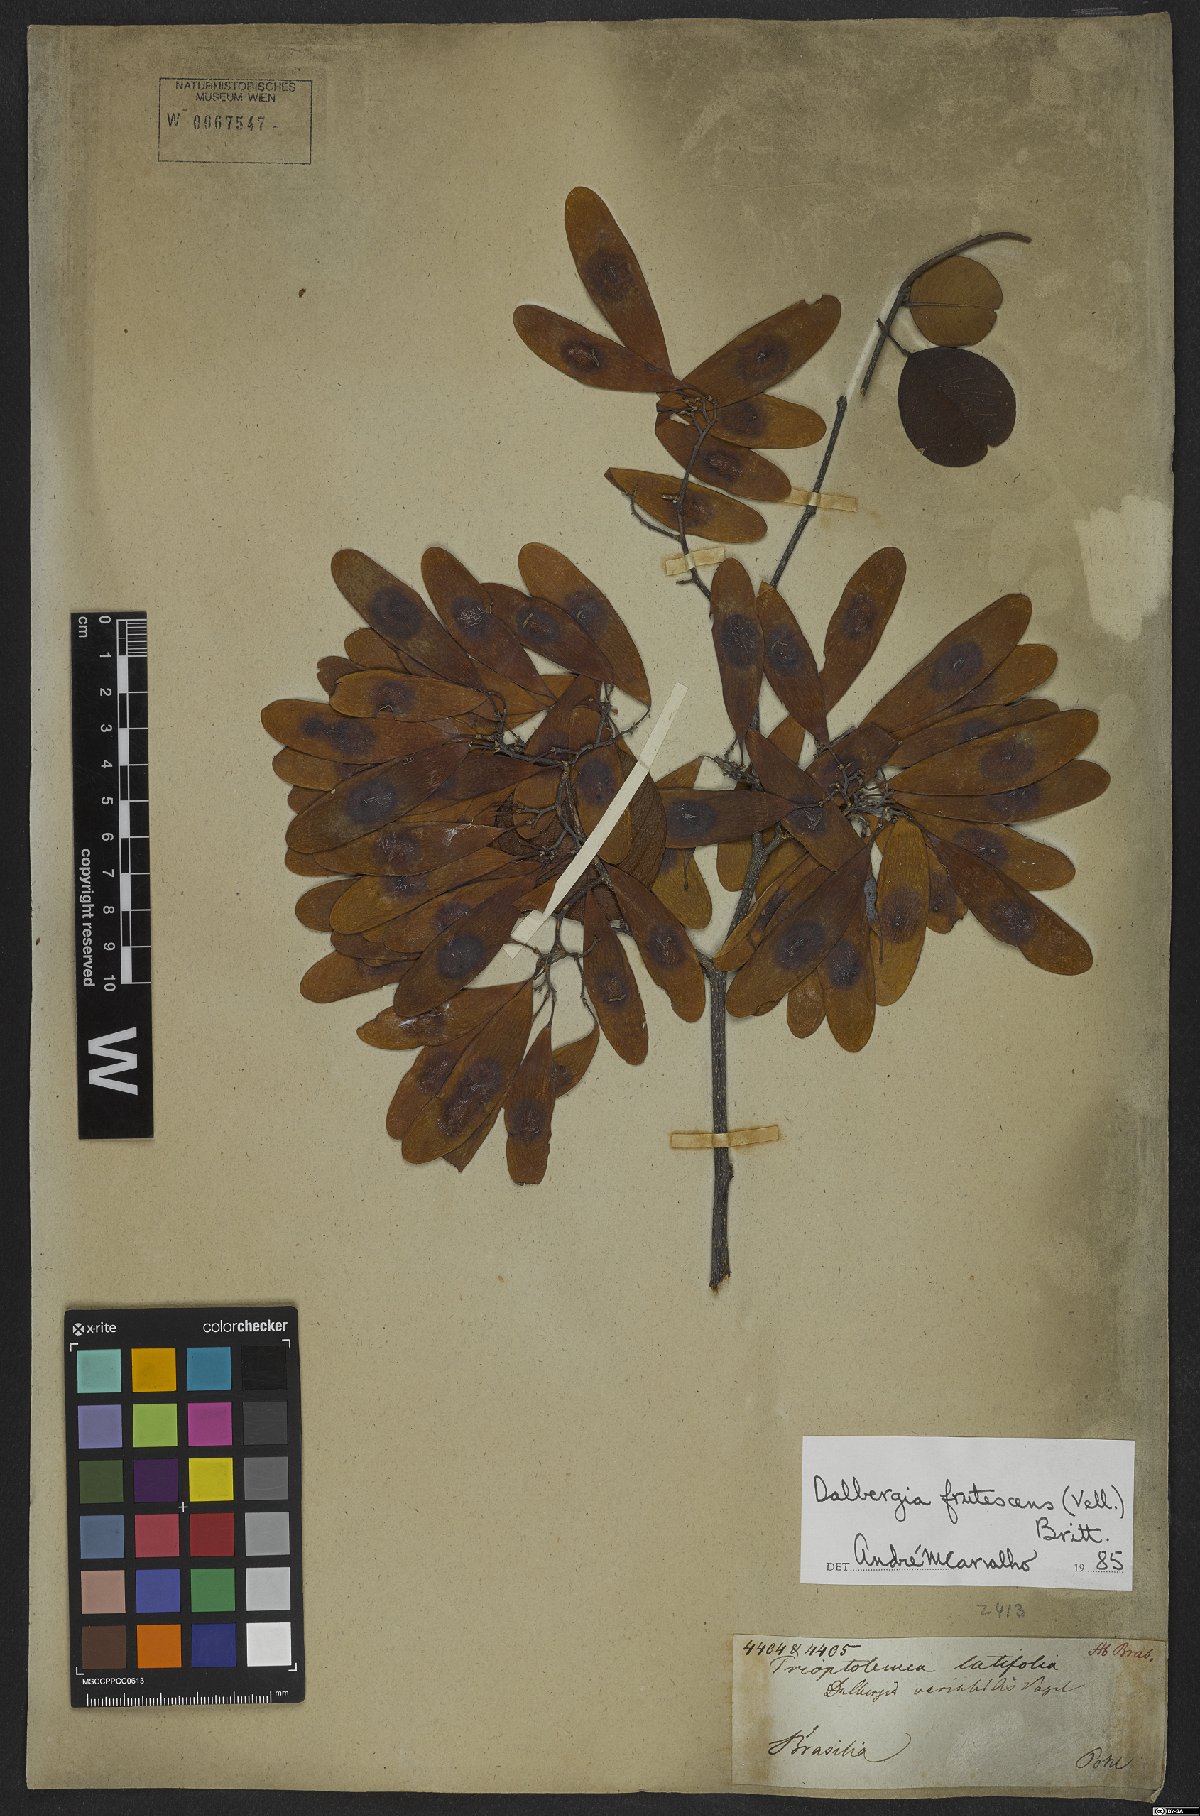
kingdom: Plantae
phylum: Tracheophyta
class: Magnoliopsida
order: Fabales
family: Fabaceae
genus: Dalbergia
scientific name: Dalbergia frutescens
